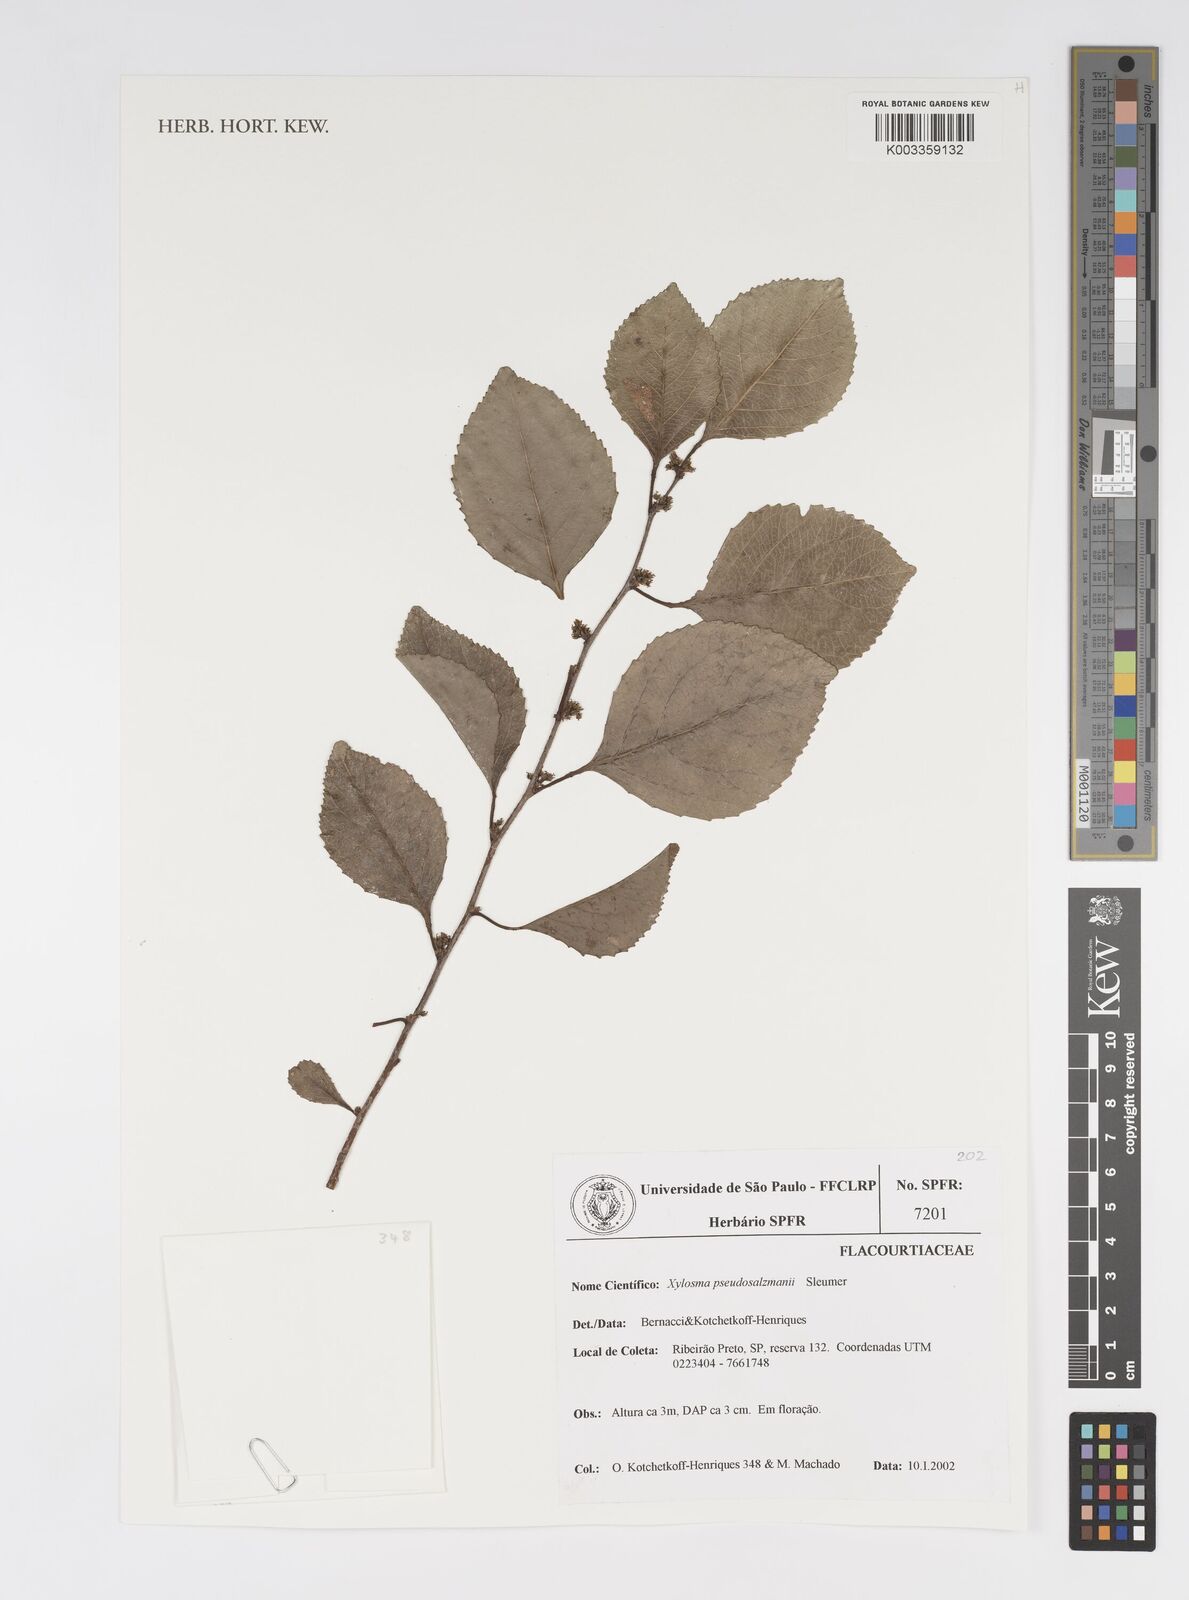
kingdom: Plantae
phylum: Tracheophyta
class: Magnoliopsida
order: Malpighiales
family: Salicaceae
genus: Xylosma
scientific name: Xylosma pseudosalzmannii
